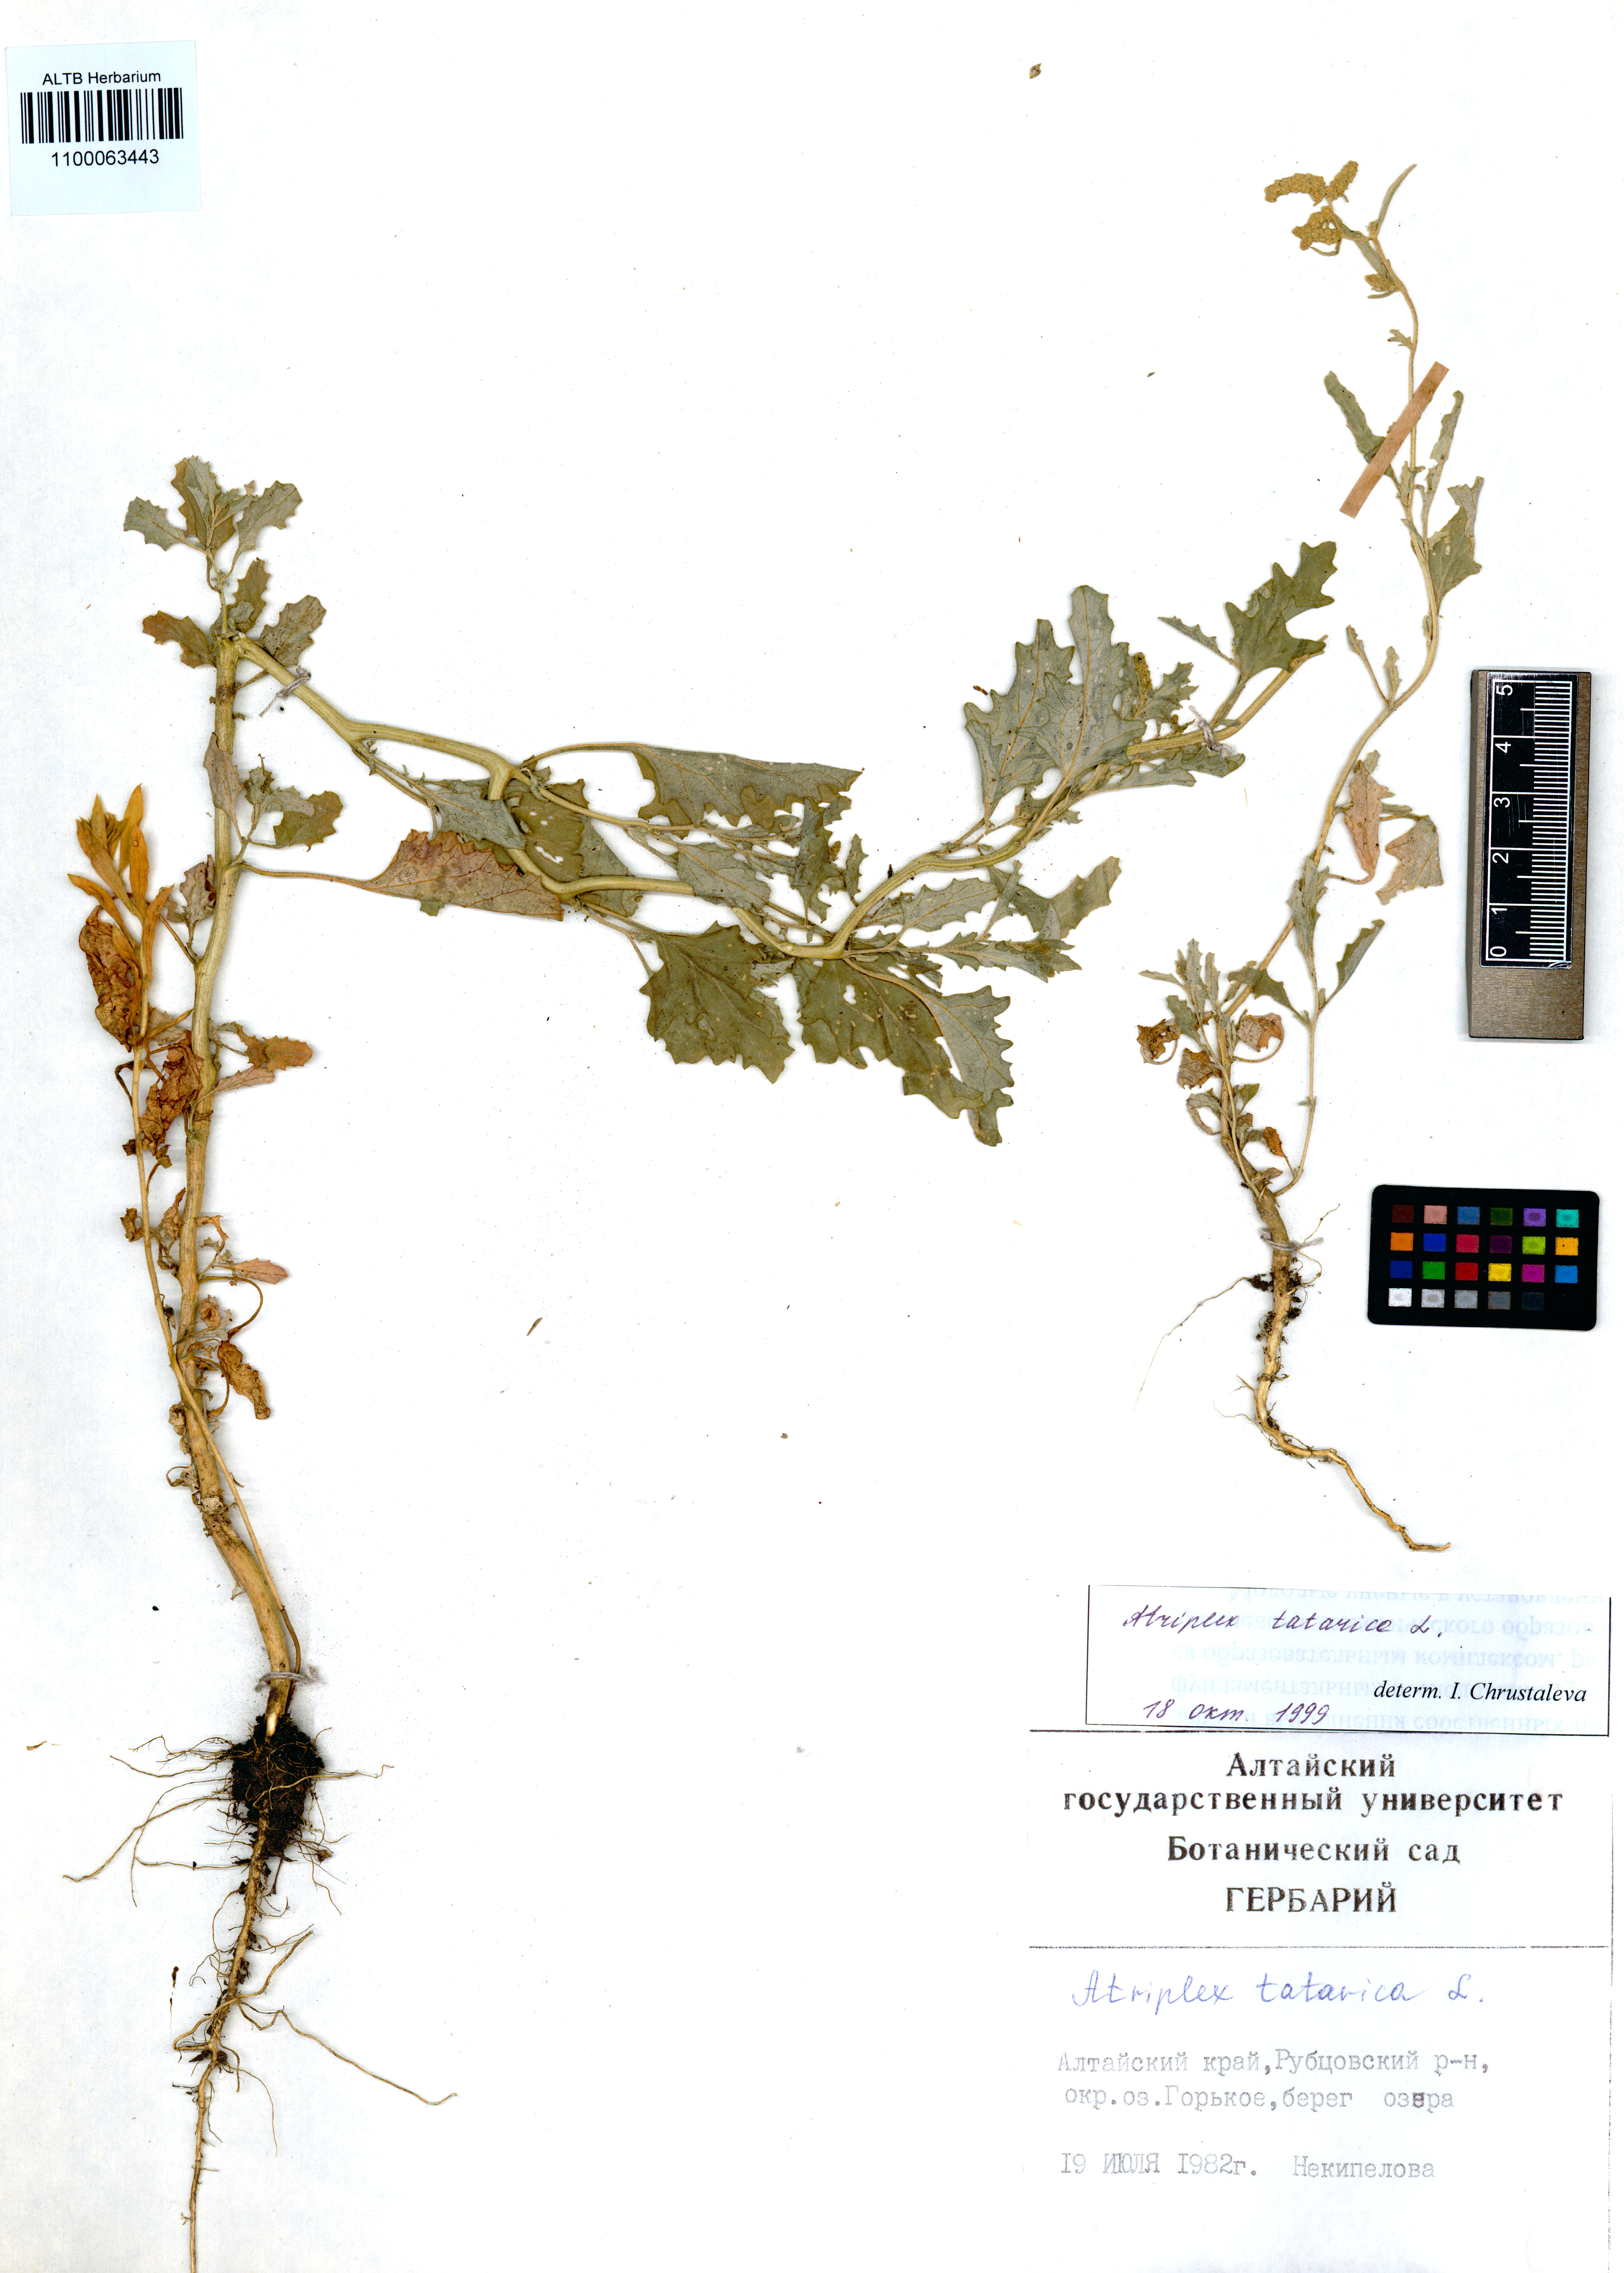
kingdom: Plantae
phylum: Tracheophyta
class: Magnoliopsida
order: Caryophyllales
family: Amaranthaceae
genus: Atriplex
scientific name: Atriplex tatarica
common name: Tatarian orache
